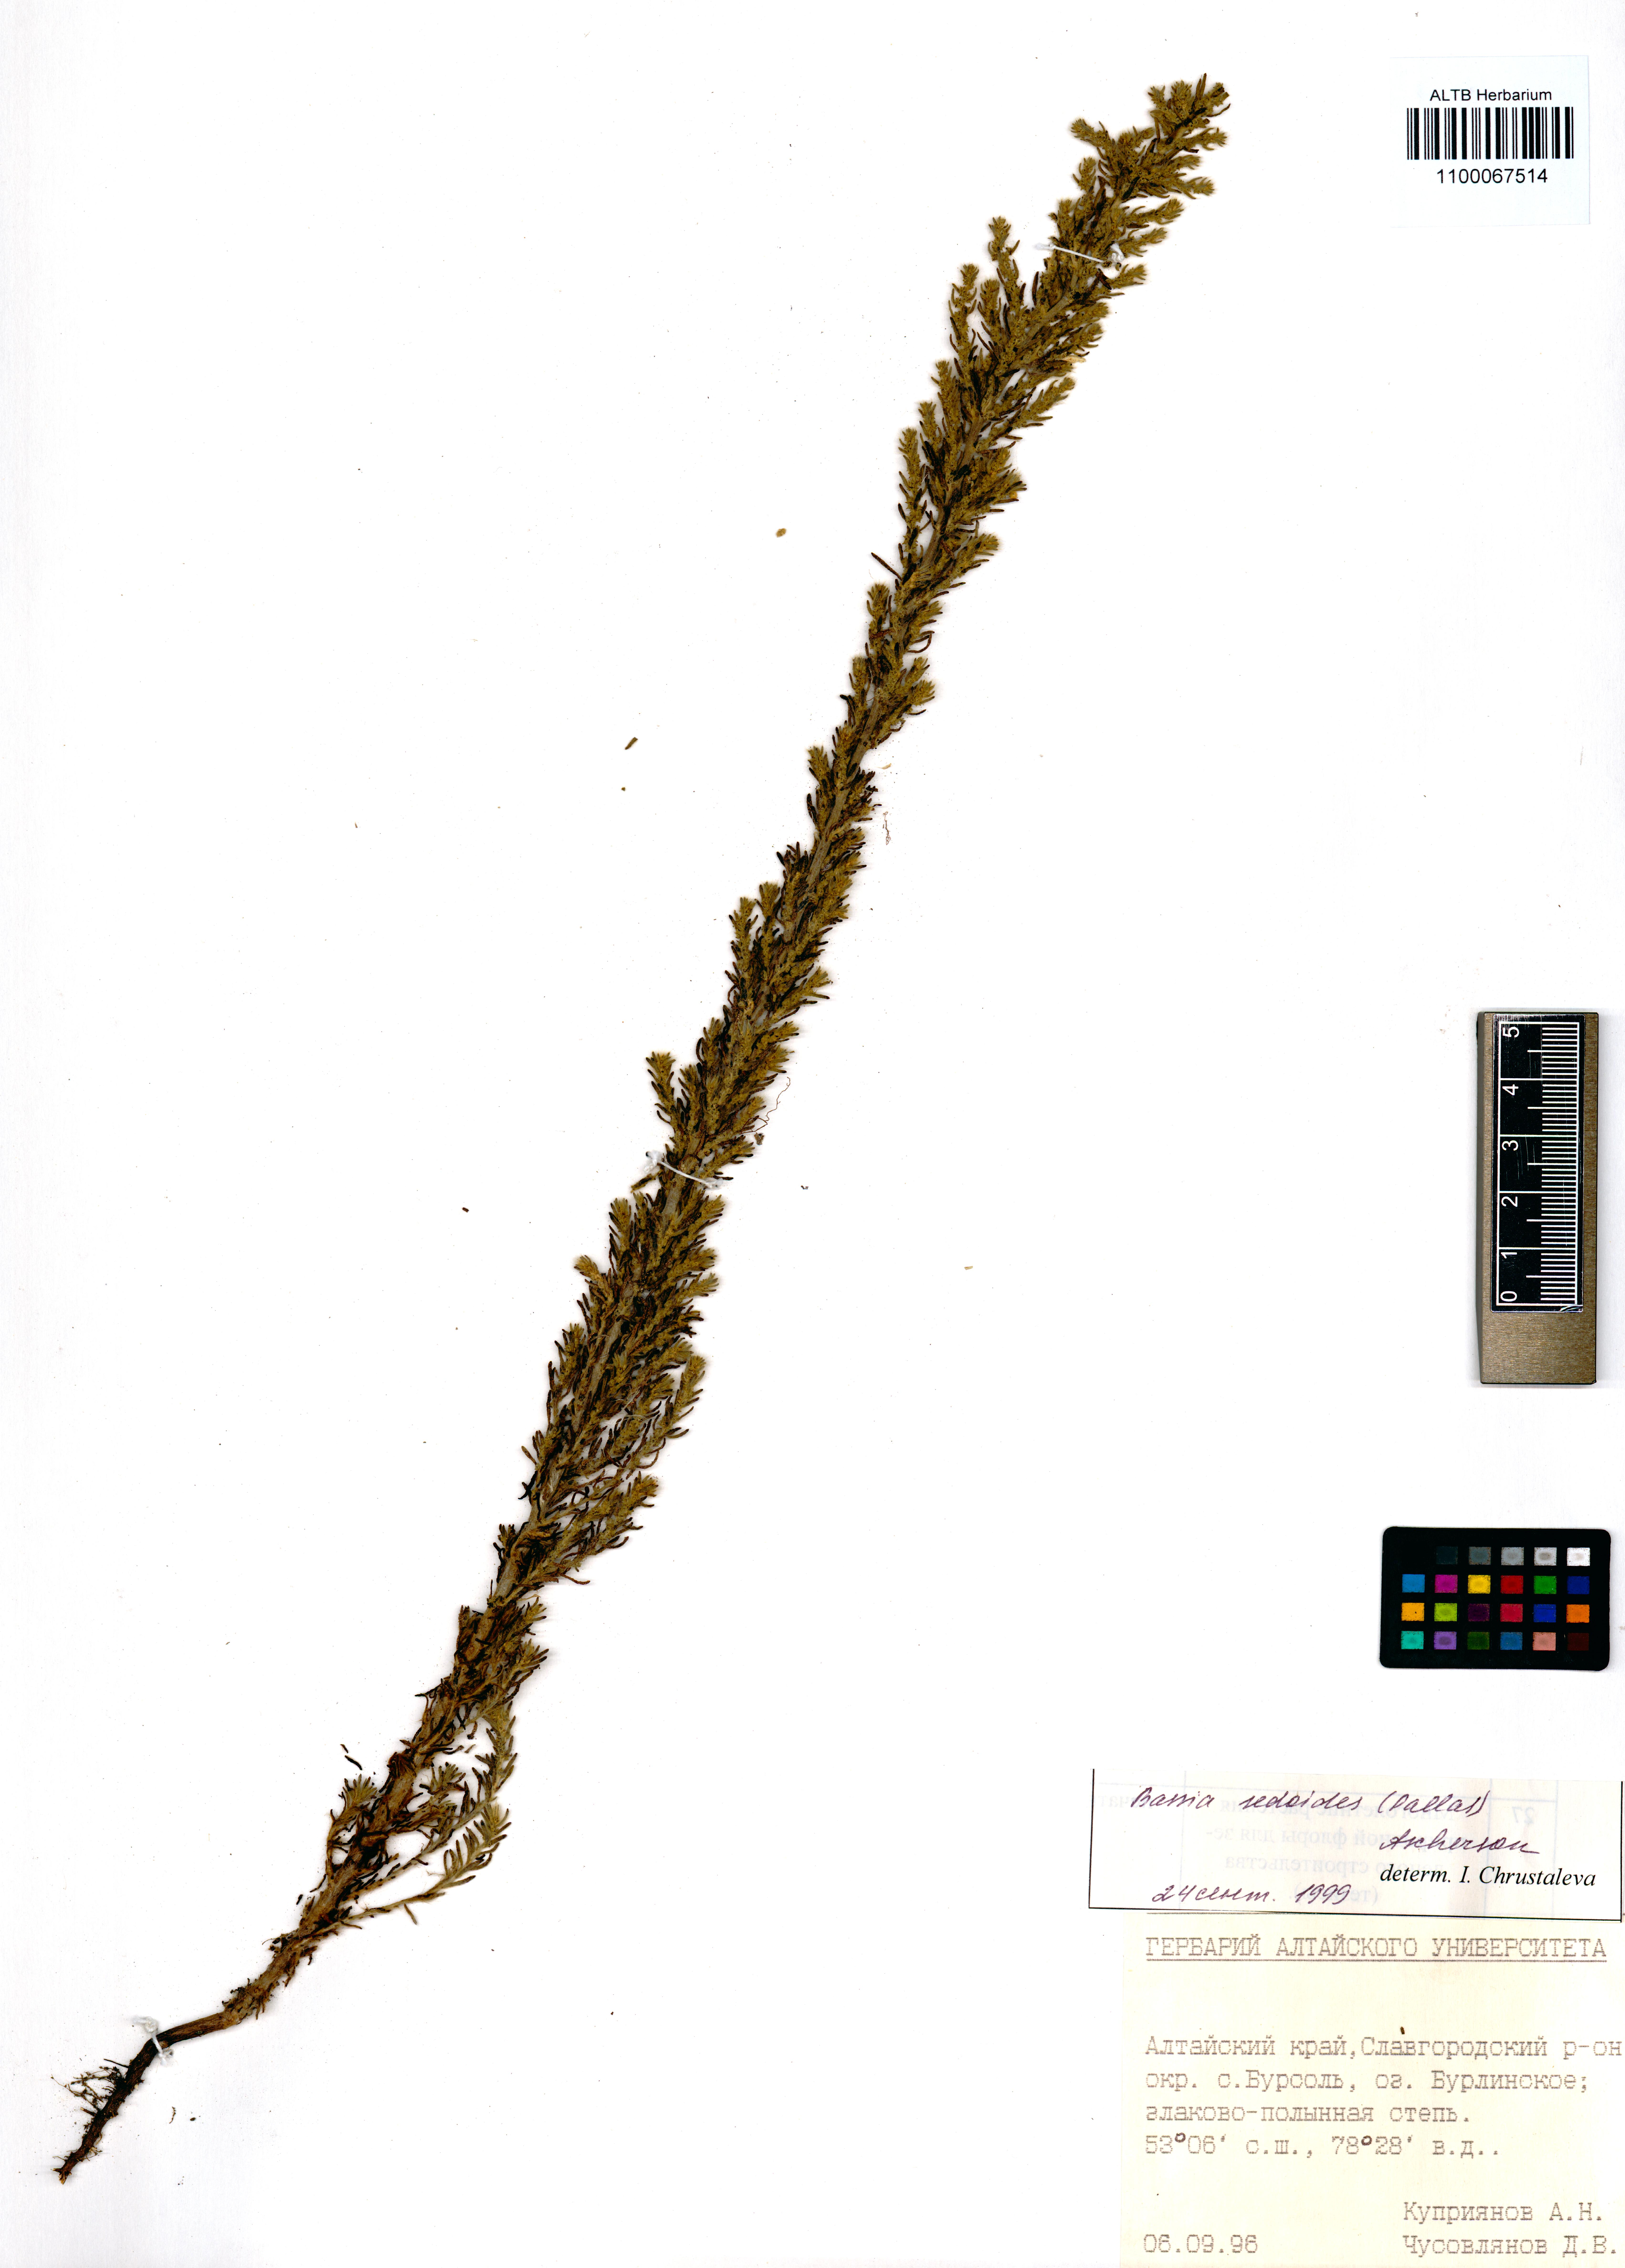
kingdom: Plantae
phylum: Tracheophyta
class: Magnoliopsida
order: Caryophyllales
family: Amaranthaceae
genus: Sedobassia
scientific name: Sedobassia sedoides
